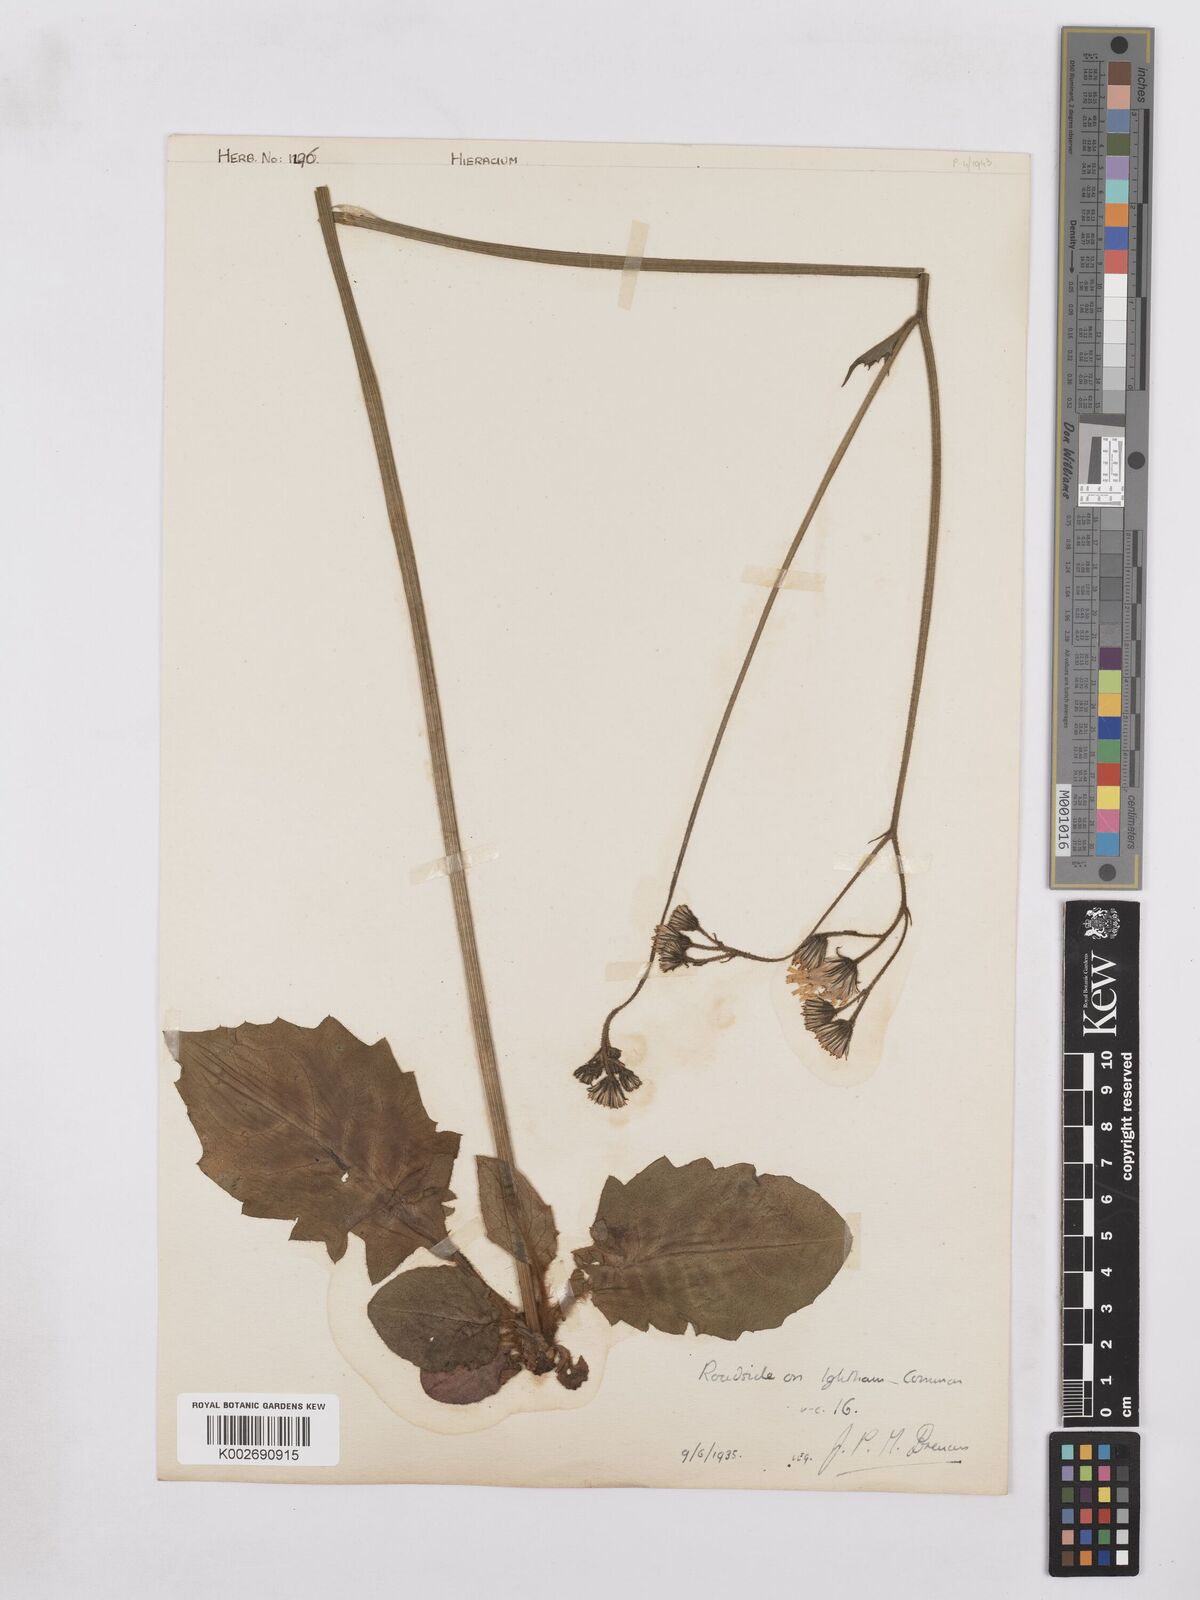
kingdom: Plantae
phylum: Tracheophyta
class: Magnoliopsida
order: Asterales
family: Asteraceae
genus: Hieracium
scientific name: Hieracium murorum
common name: Wall hawkweed
